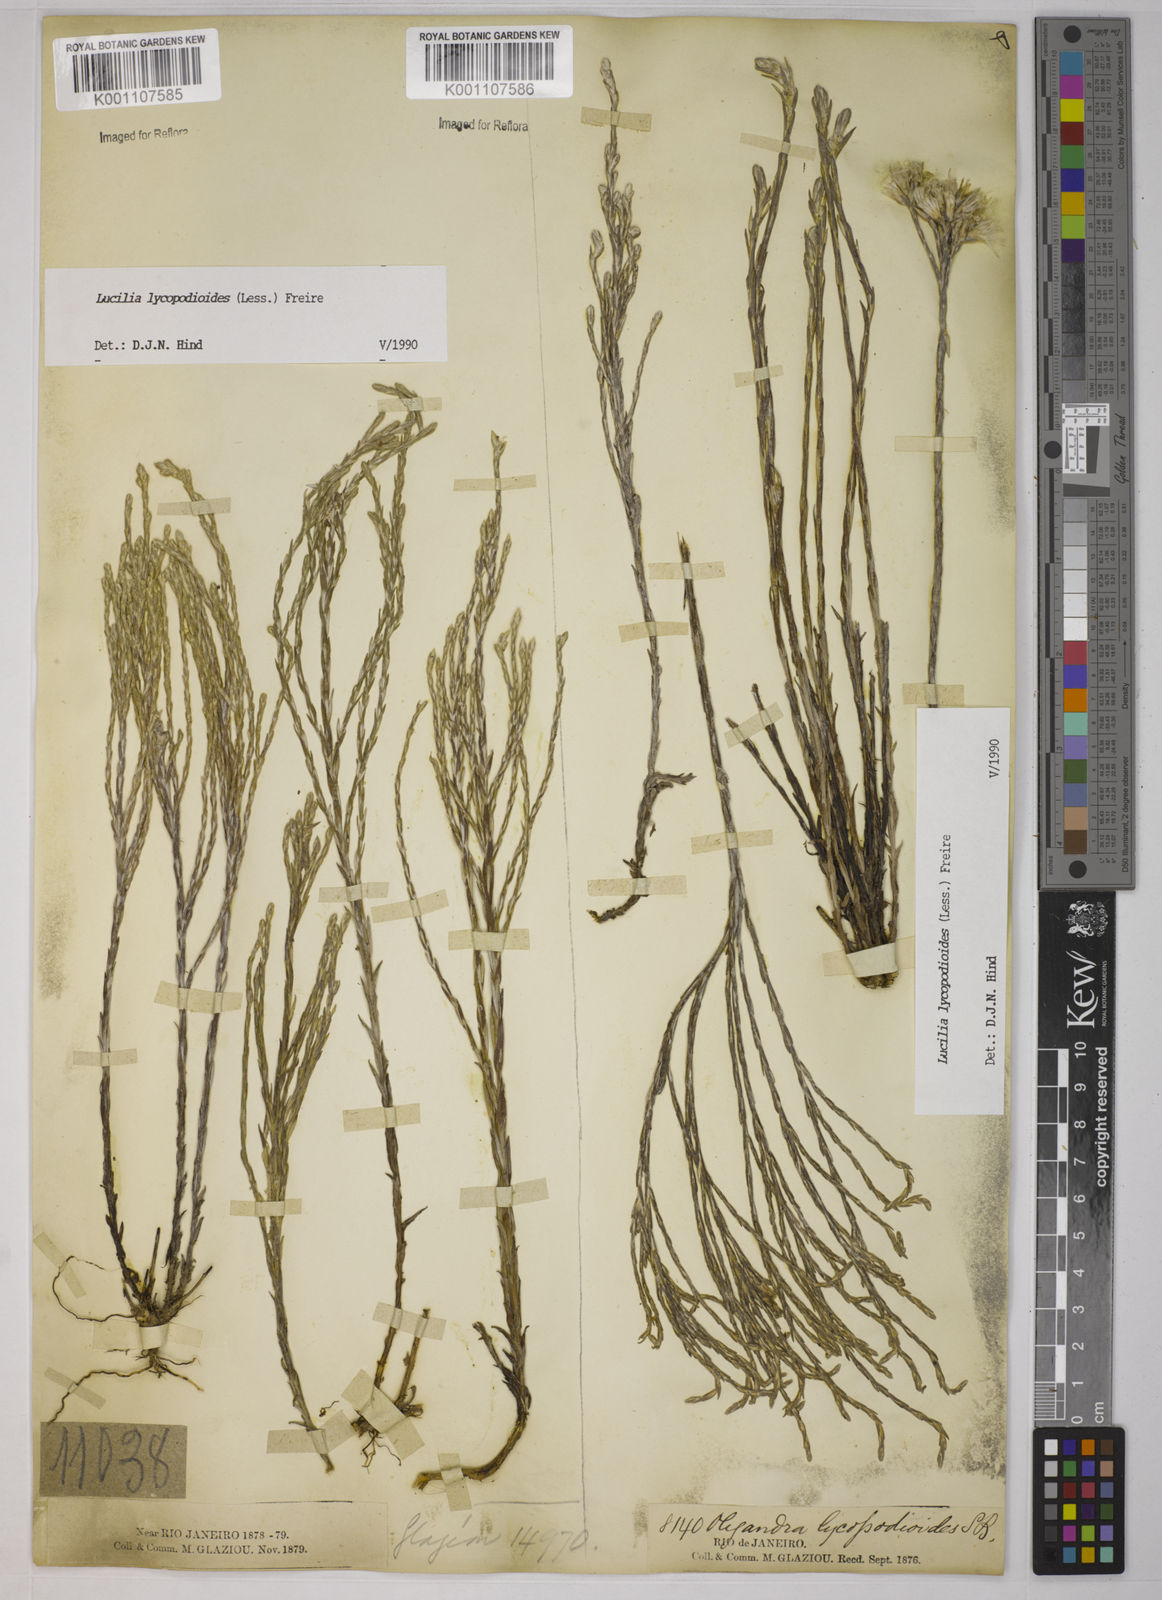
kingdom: Plantae
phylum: Tracheophyta
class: Magnoliopsida
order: Asterales
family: Asteraceae
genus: Lucilia
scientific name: Lucilia lycopodioides
